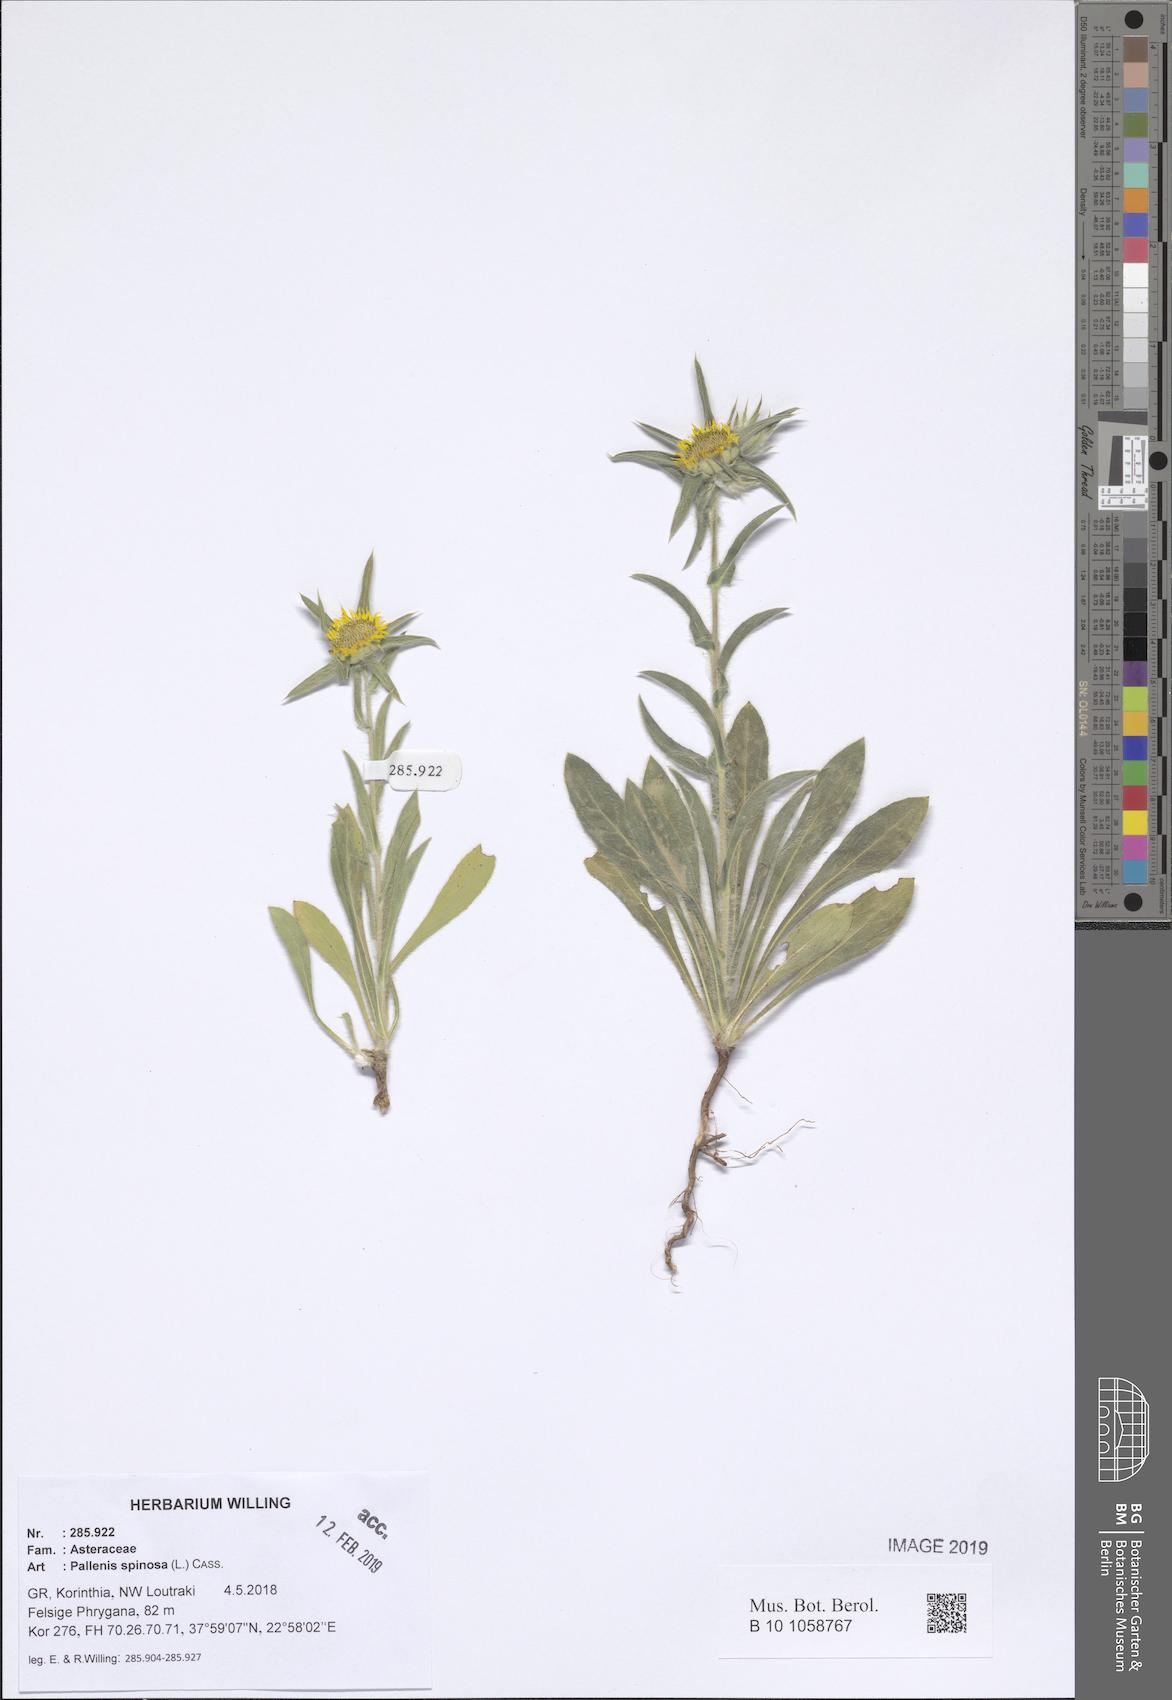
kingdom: Plantae
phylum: Tracheophyta
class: Magnoliopsida
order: Asterales
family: Asteraceae
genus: Pallenis
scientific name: Pallenis spinosa
